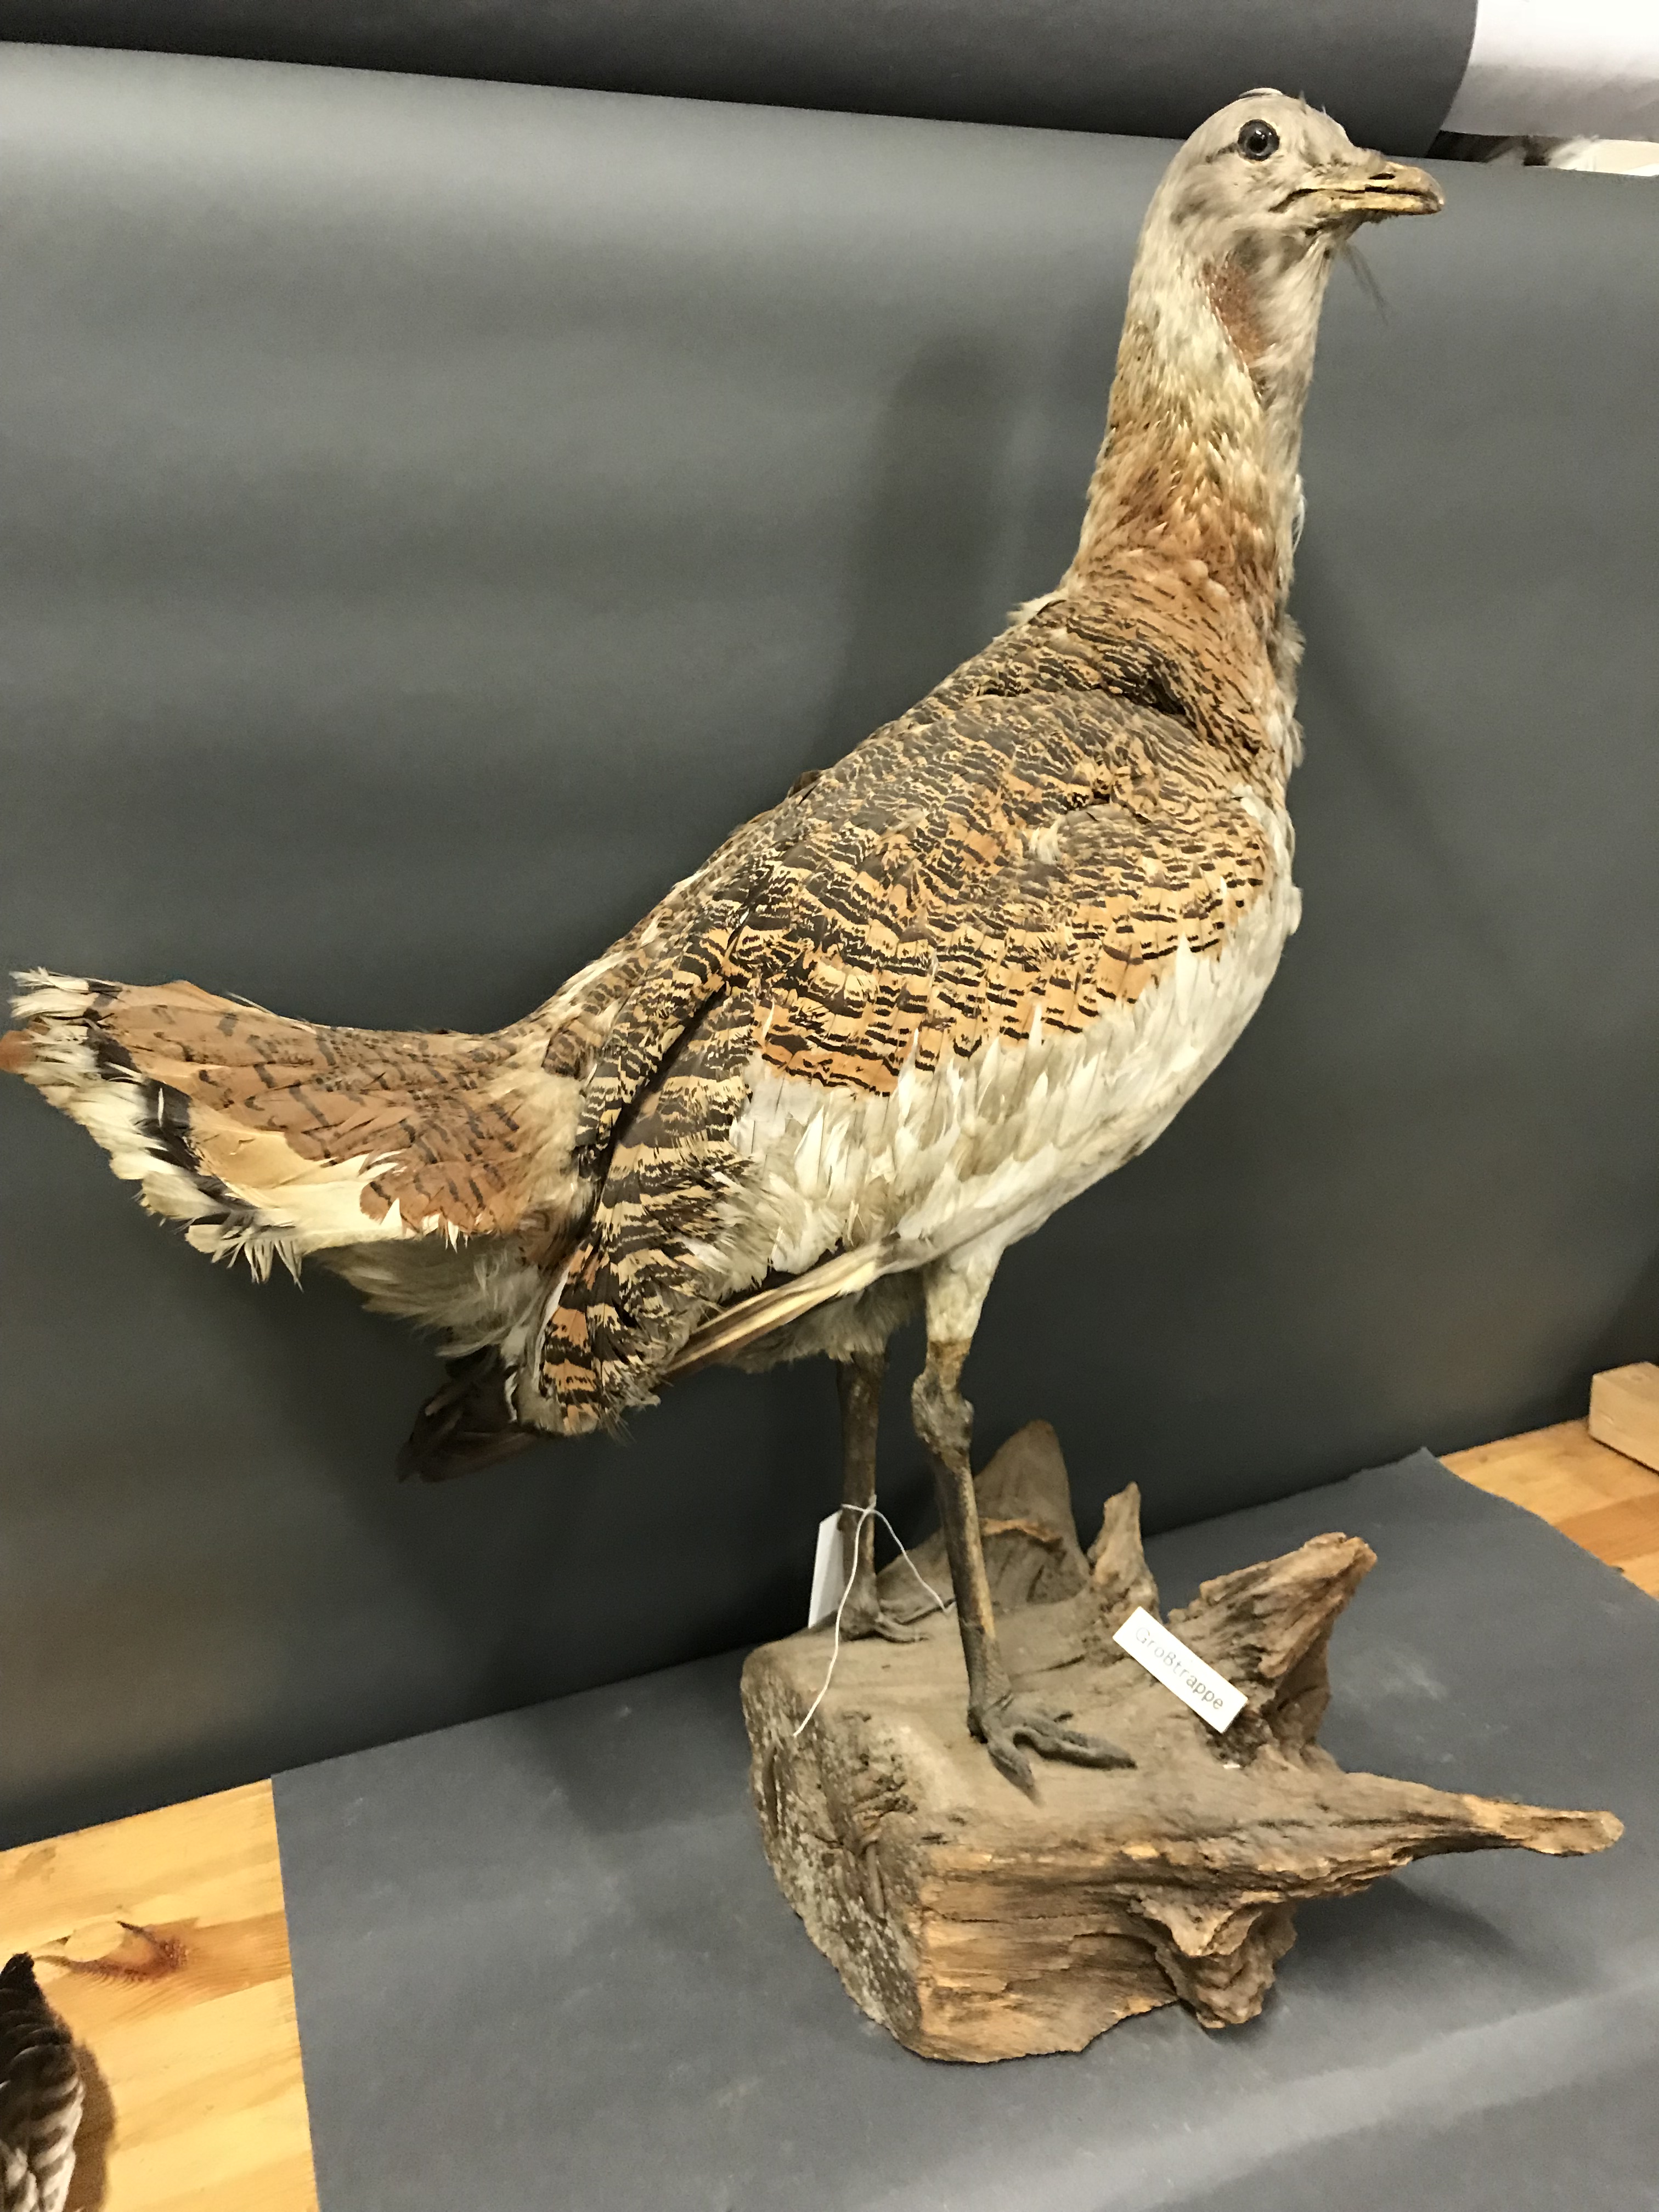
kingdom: Animalia
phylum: Chordata
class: Aves
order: Otidiformes
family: Otididae
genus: Otis
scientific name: Otis tarda
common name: Great bustard
